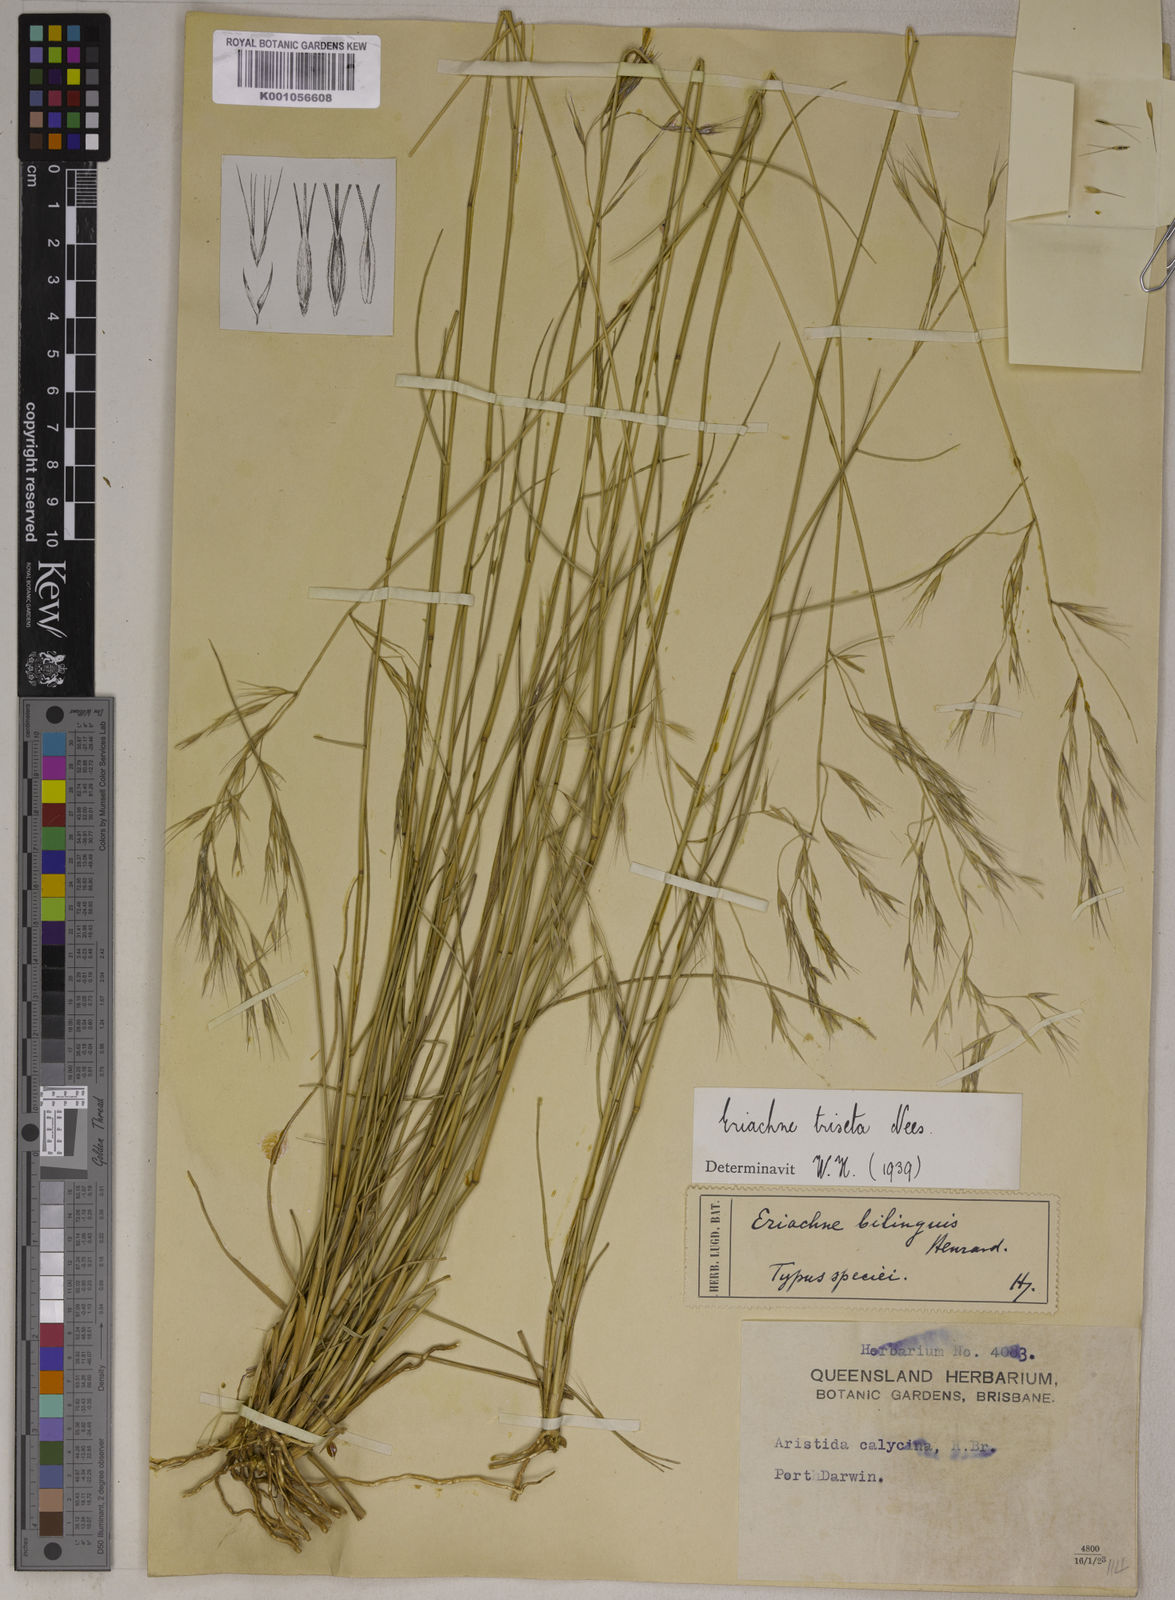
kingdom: Plantae
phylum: Tracheophyta
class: Liliopsida
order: Poales
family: Poaceae
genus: Eriachne
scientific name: Eriachne triseta
